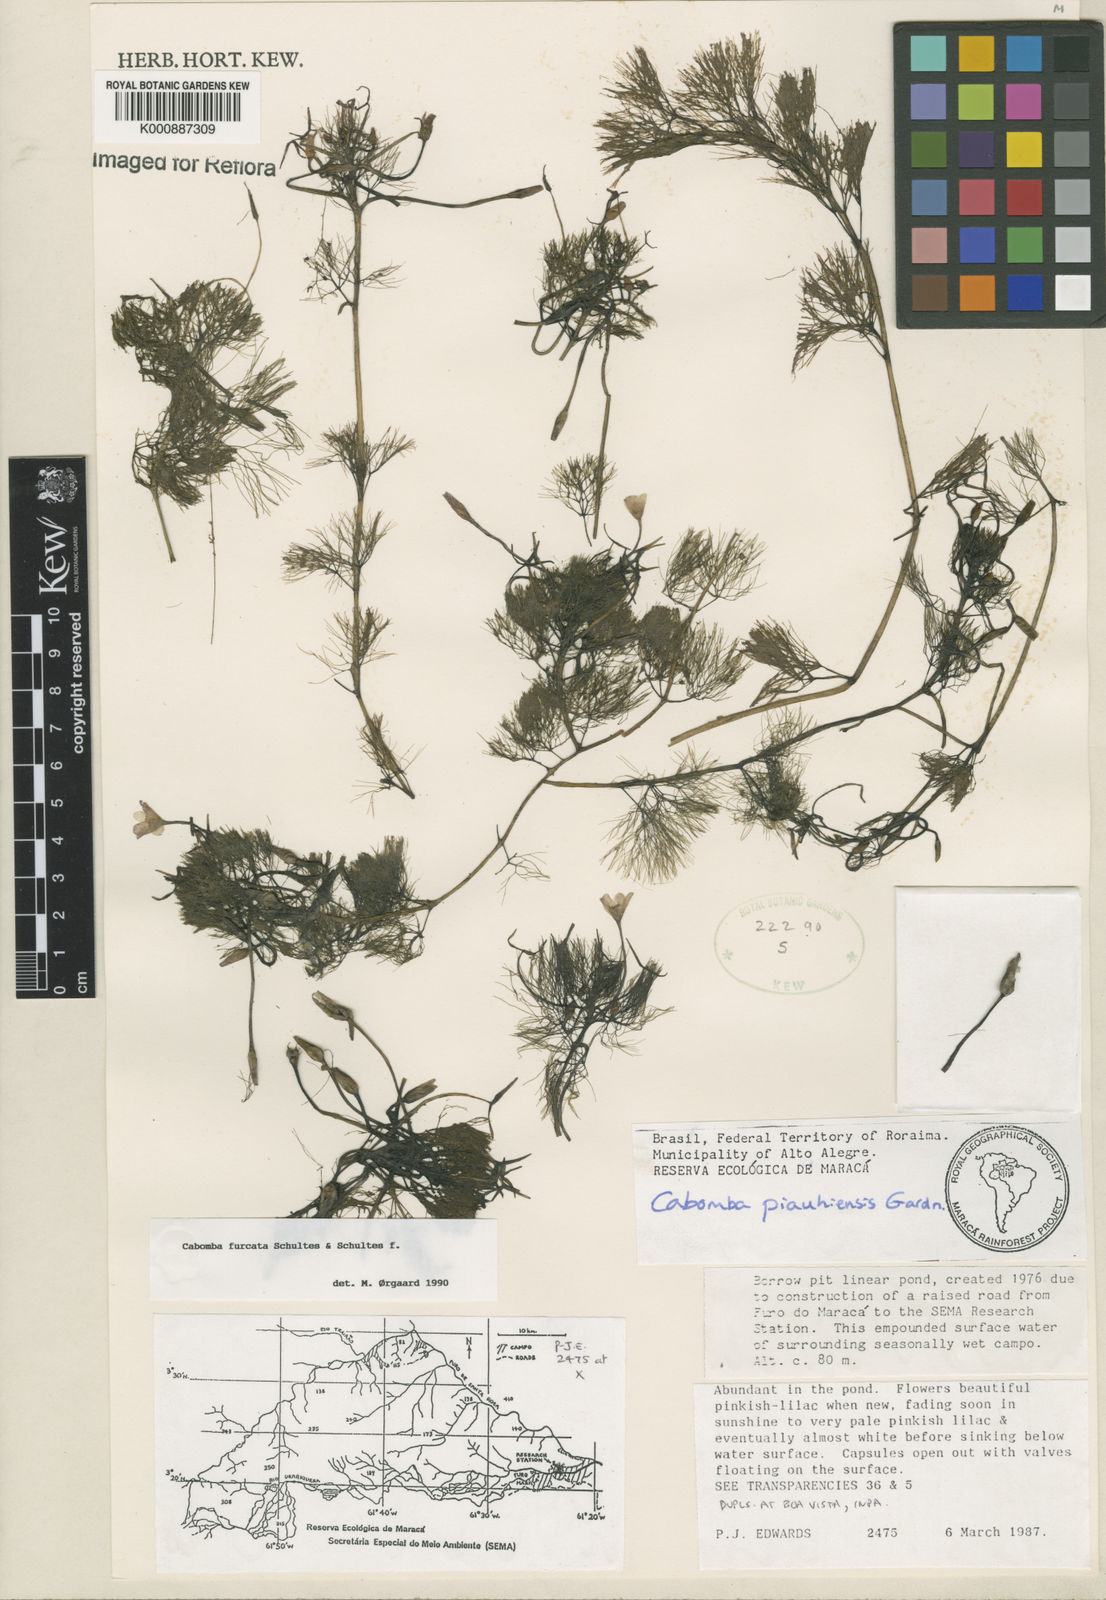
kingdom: Plantae
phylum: Tracheophyta
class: Magnoliopsida
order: Nymphaeales
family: Cabombaceae
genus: Cabomba
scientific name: Cabomba furcata
